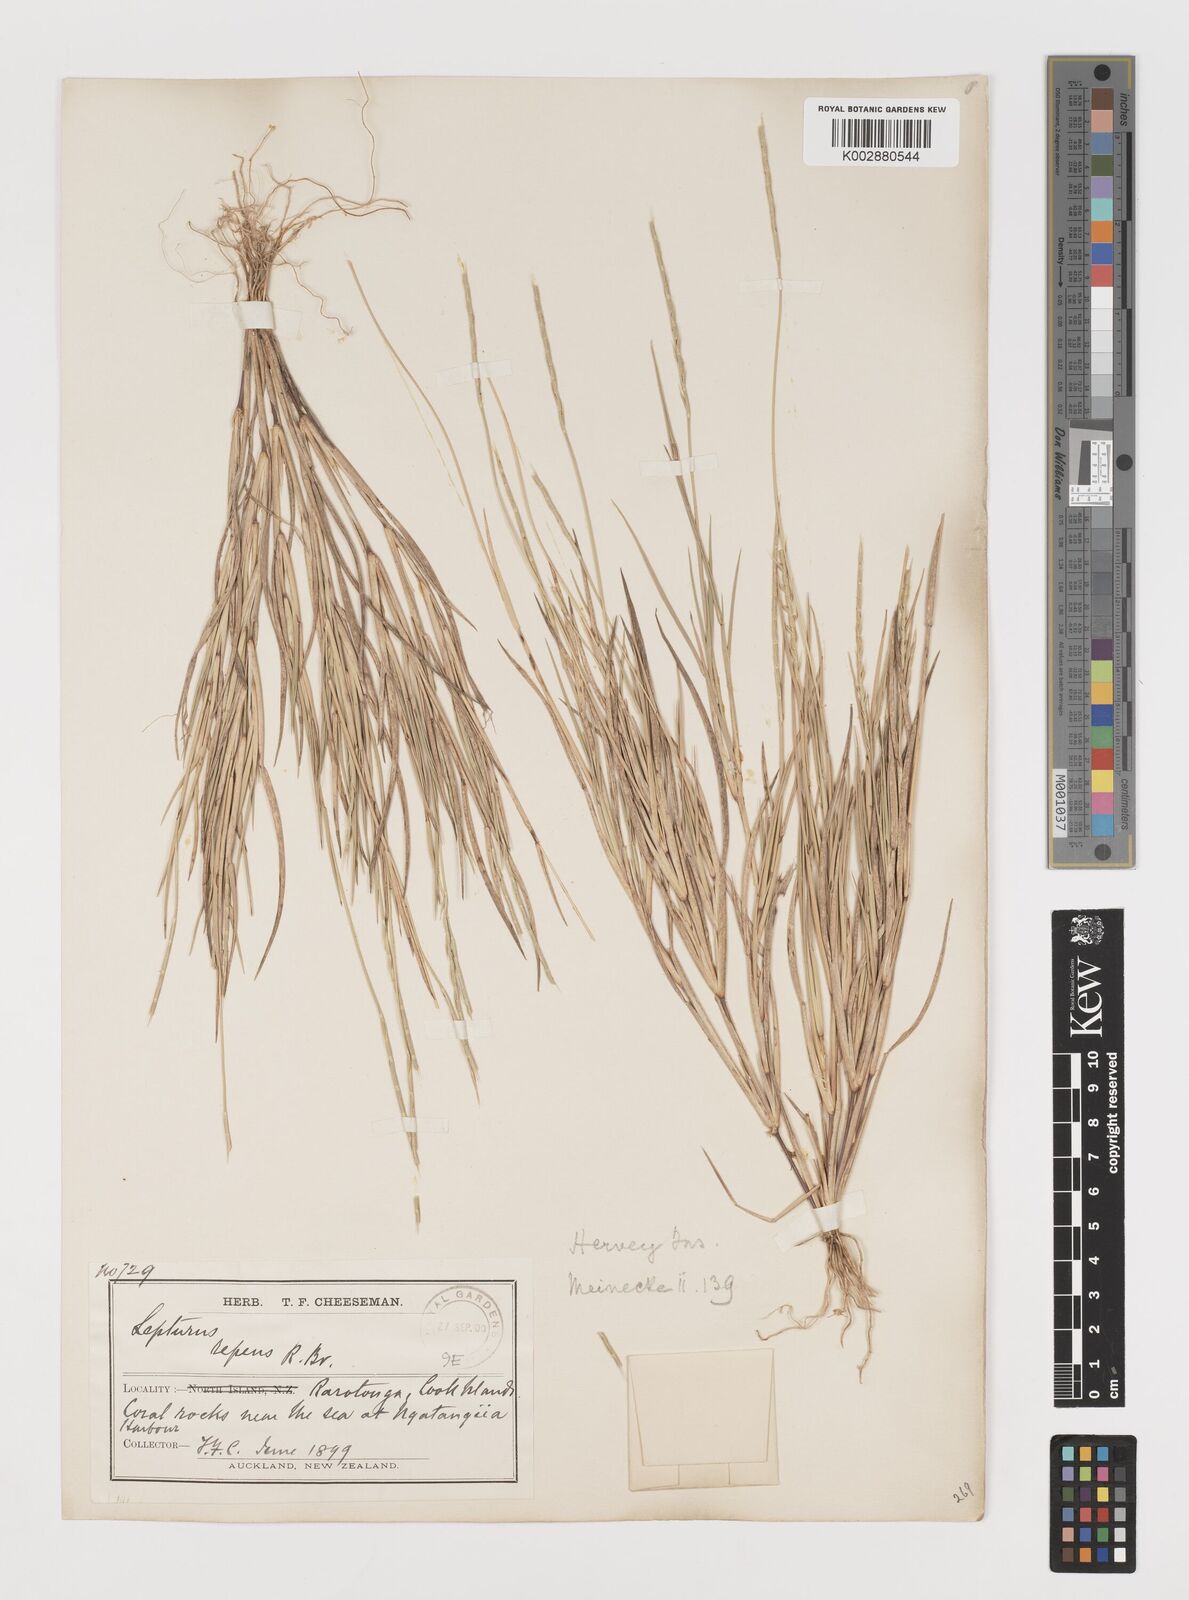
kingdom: Plantae
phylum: Tracheophyta
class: Liliopsida
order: Poales
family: Poaceae
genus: Lepturus
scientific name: Lepturus repens
